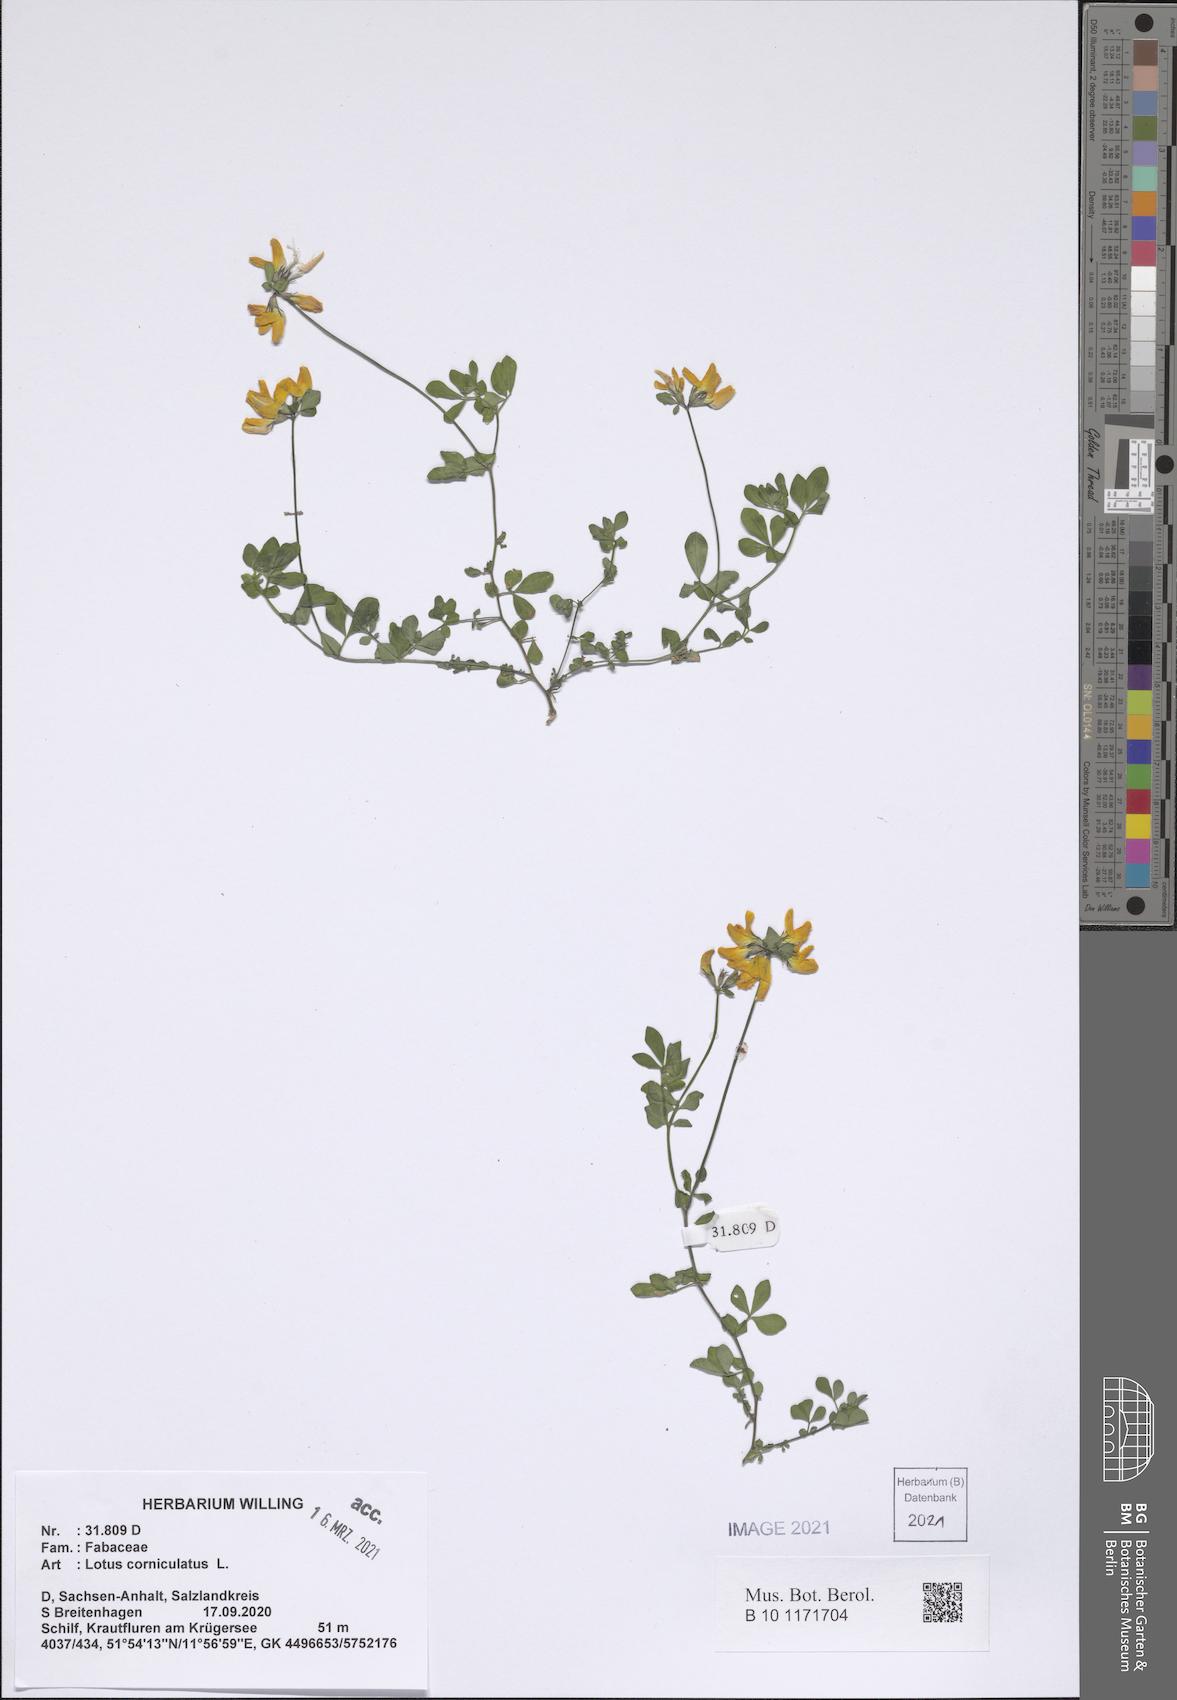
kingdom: Plantae
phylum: Tracheophyta
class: Magnoliopsida
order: Fabales
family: Fabaceae
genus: Lotus
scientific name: Lotus corniculatus
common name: Common bird's-foot-trefoil
